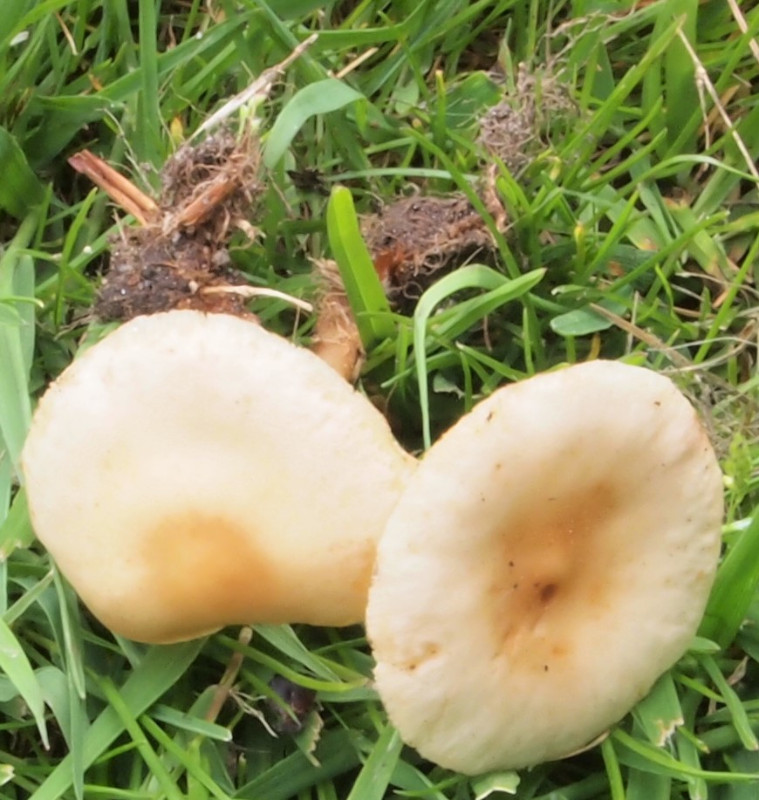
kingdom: Fungi
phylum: Basidiomycota
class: Agaricomycetes
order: Agaricales
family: Omphalotaceae
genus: Gymnopus
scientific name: Gymnopus dryophilus
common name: løv-fladhat
